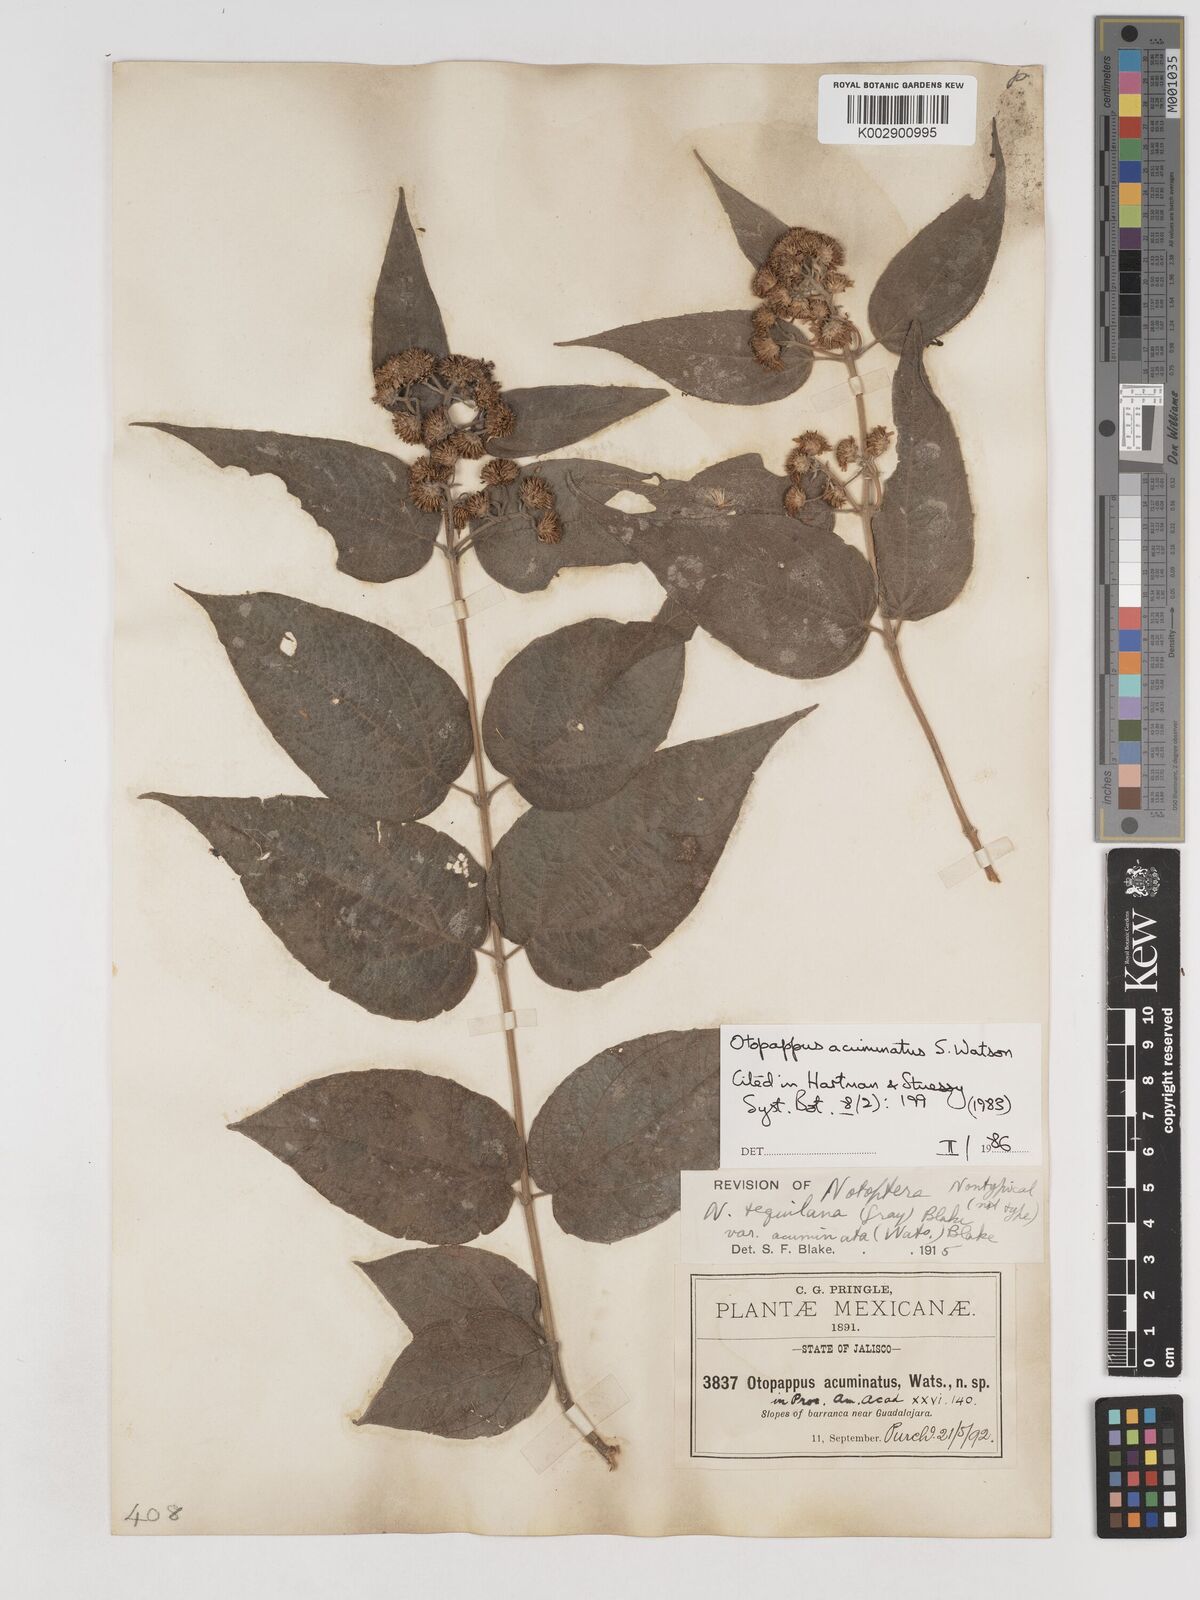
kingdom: Plantae
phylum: Tracheophyta
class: Magnoliopsida
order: Asterales
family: Asteraceae
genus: Otopappus
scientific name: Otopappus acuminatus
